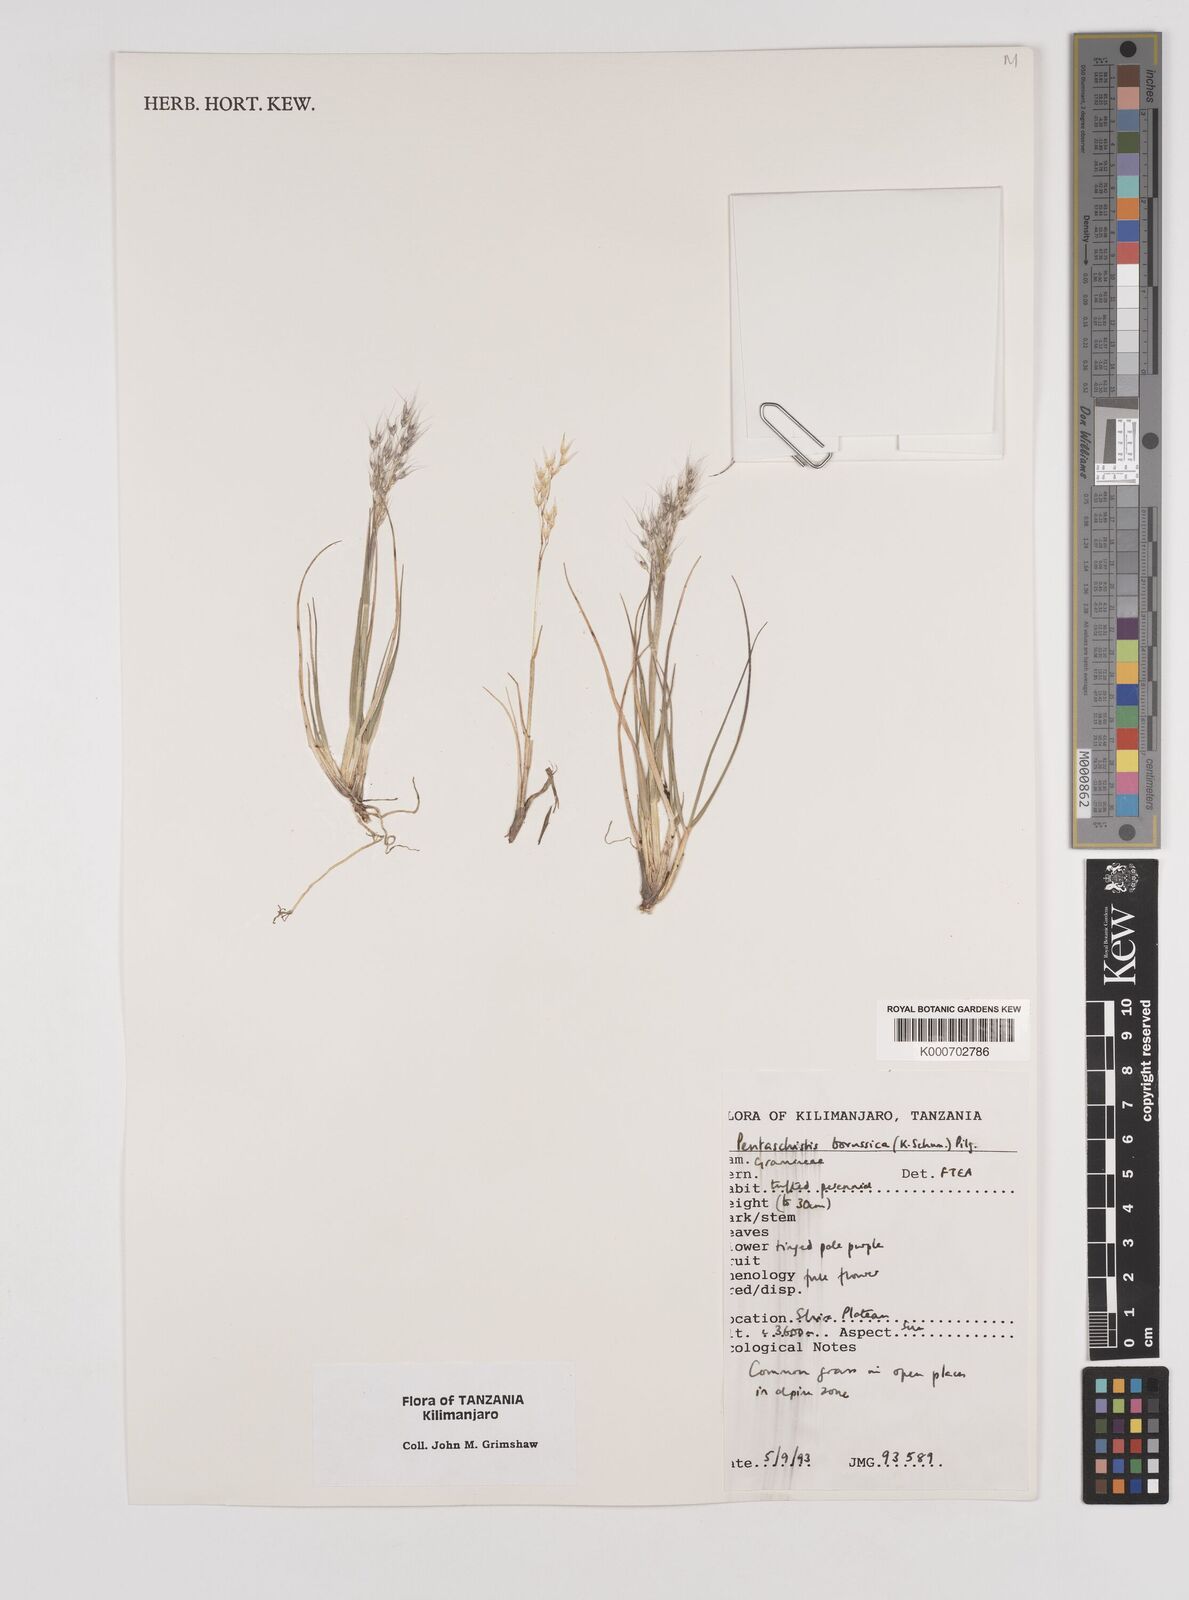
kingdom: Plantae
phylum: Tracheophyta
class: Liliopsida
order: Poales
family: Poaceae
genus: Pentameris
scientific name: Pentameris borussica
